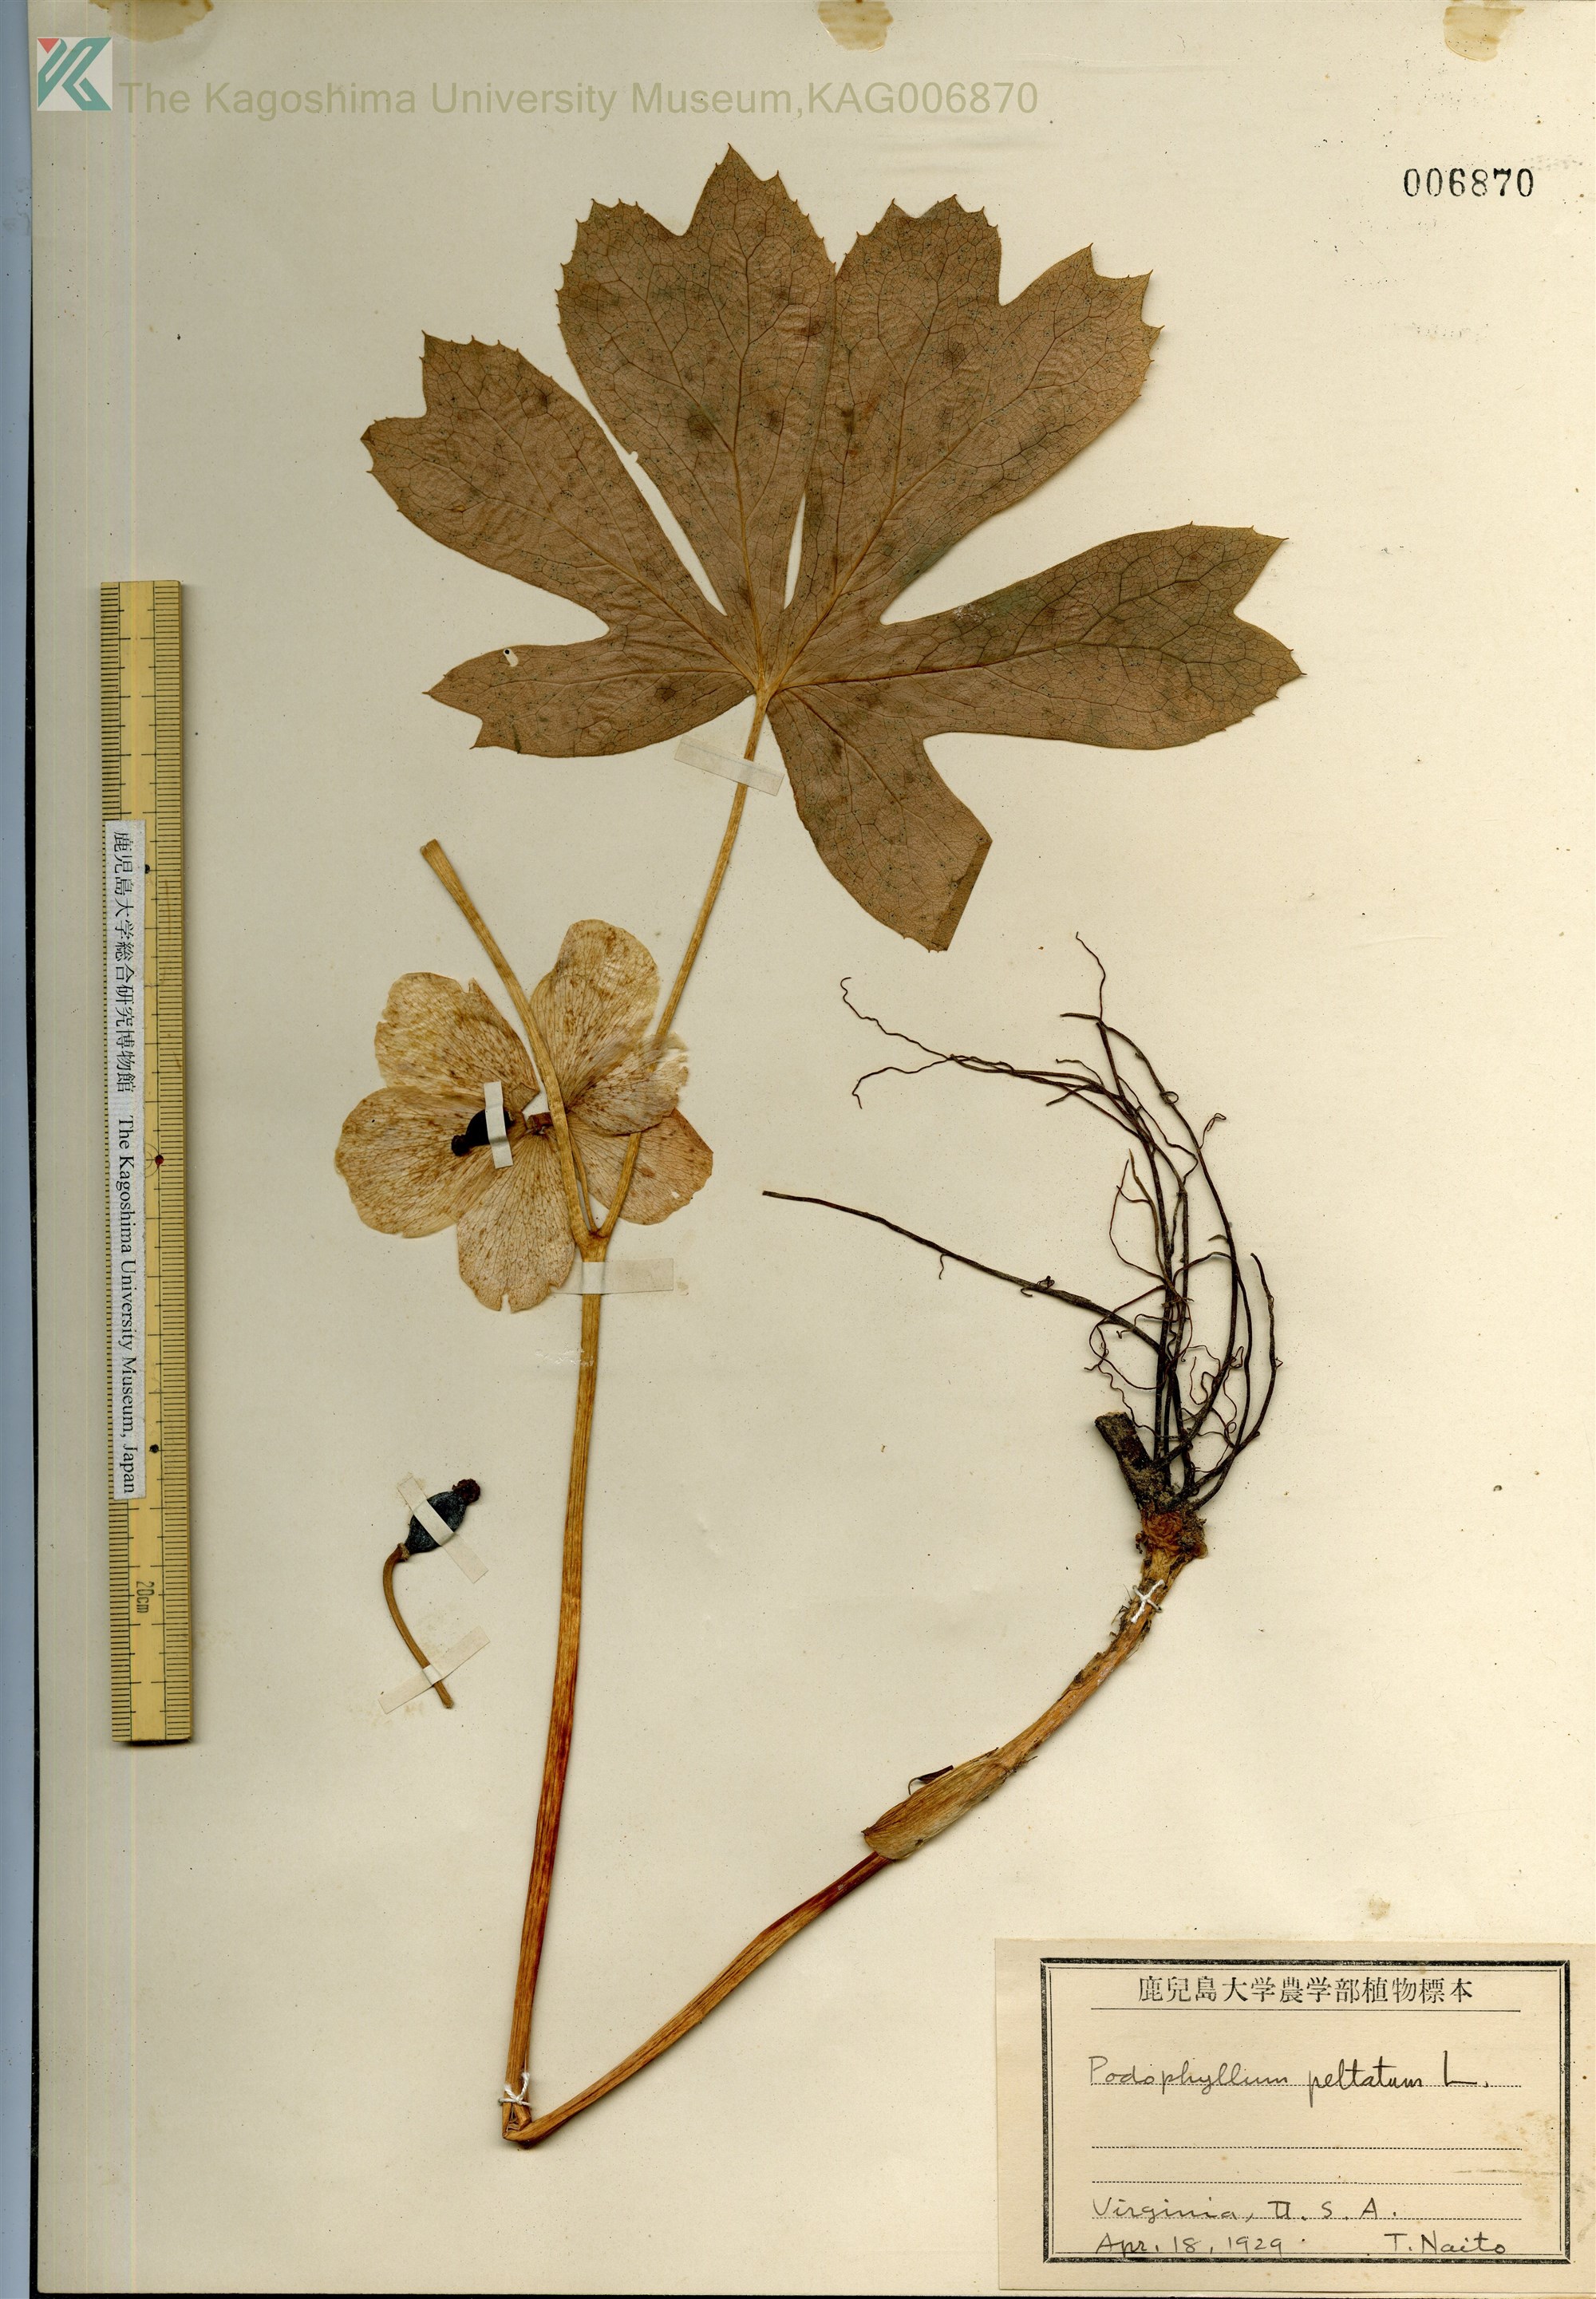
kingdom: Plantae
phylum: Tracheophyta
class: Magnoliopsida
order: Ranunculales
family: Berberidaceae
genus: Podophyllum
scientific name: Podophyllum peltatum
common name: Wild mandrake
